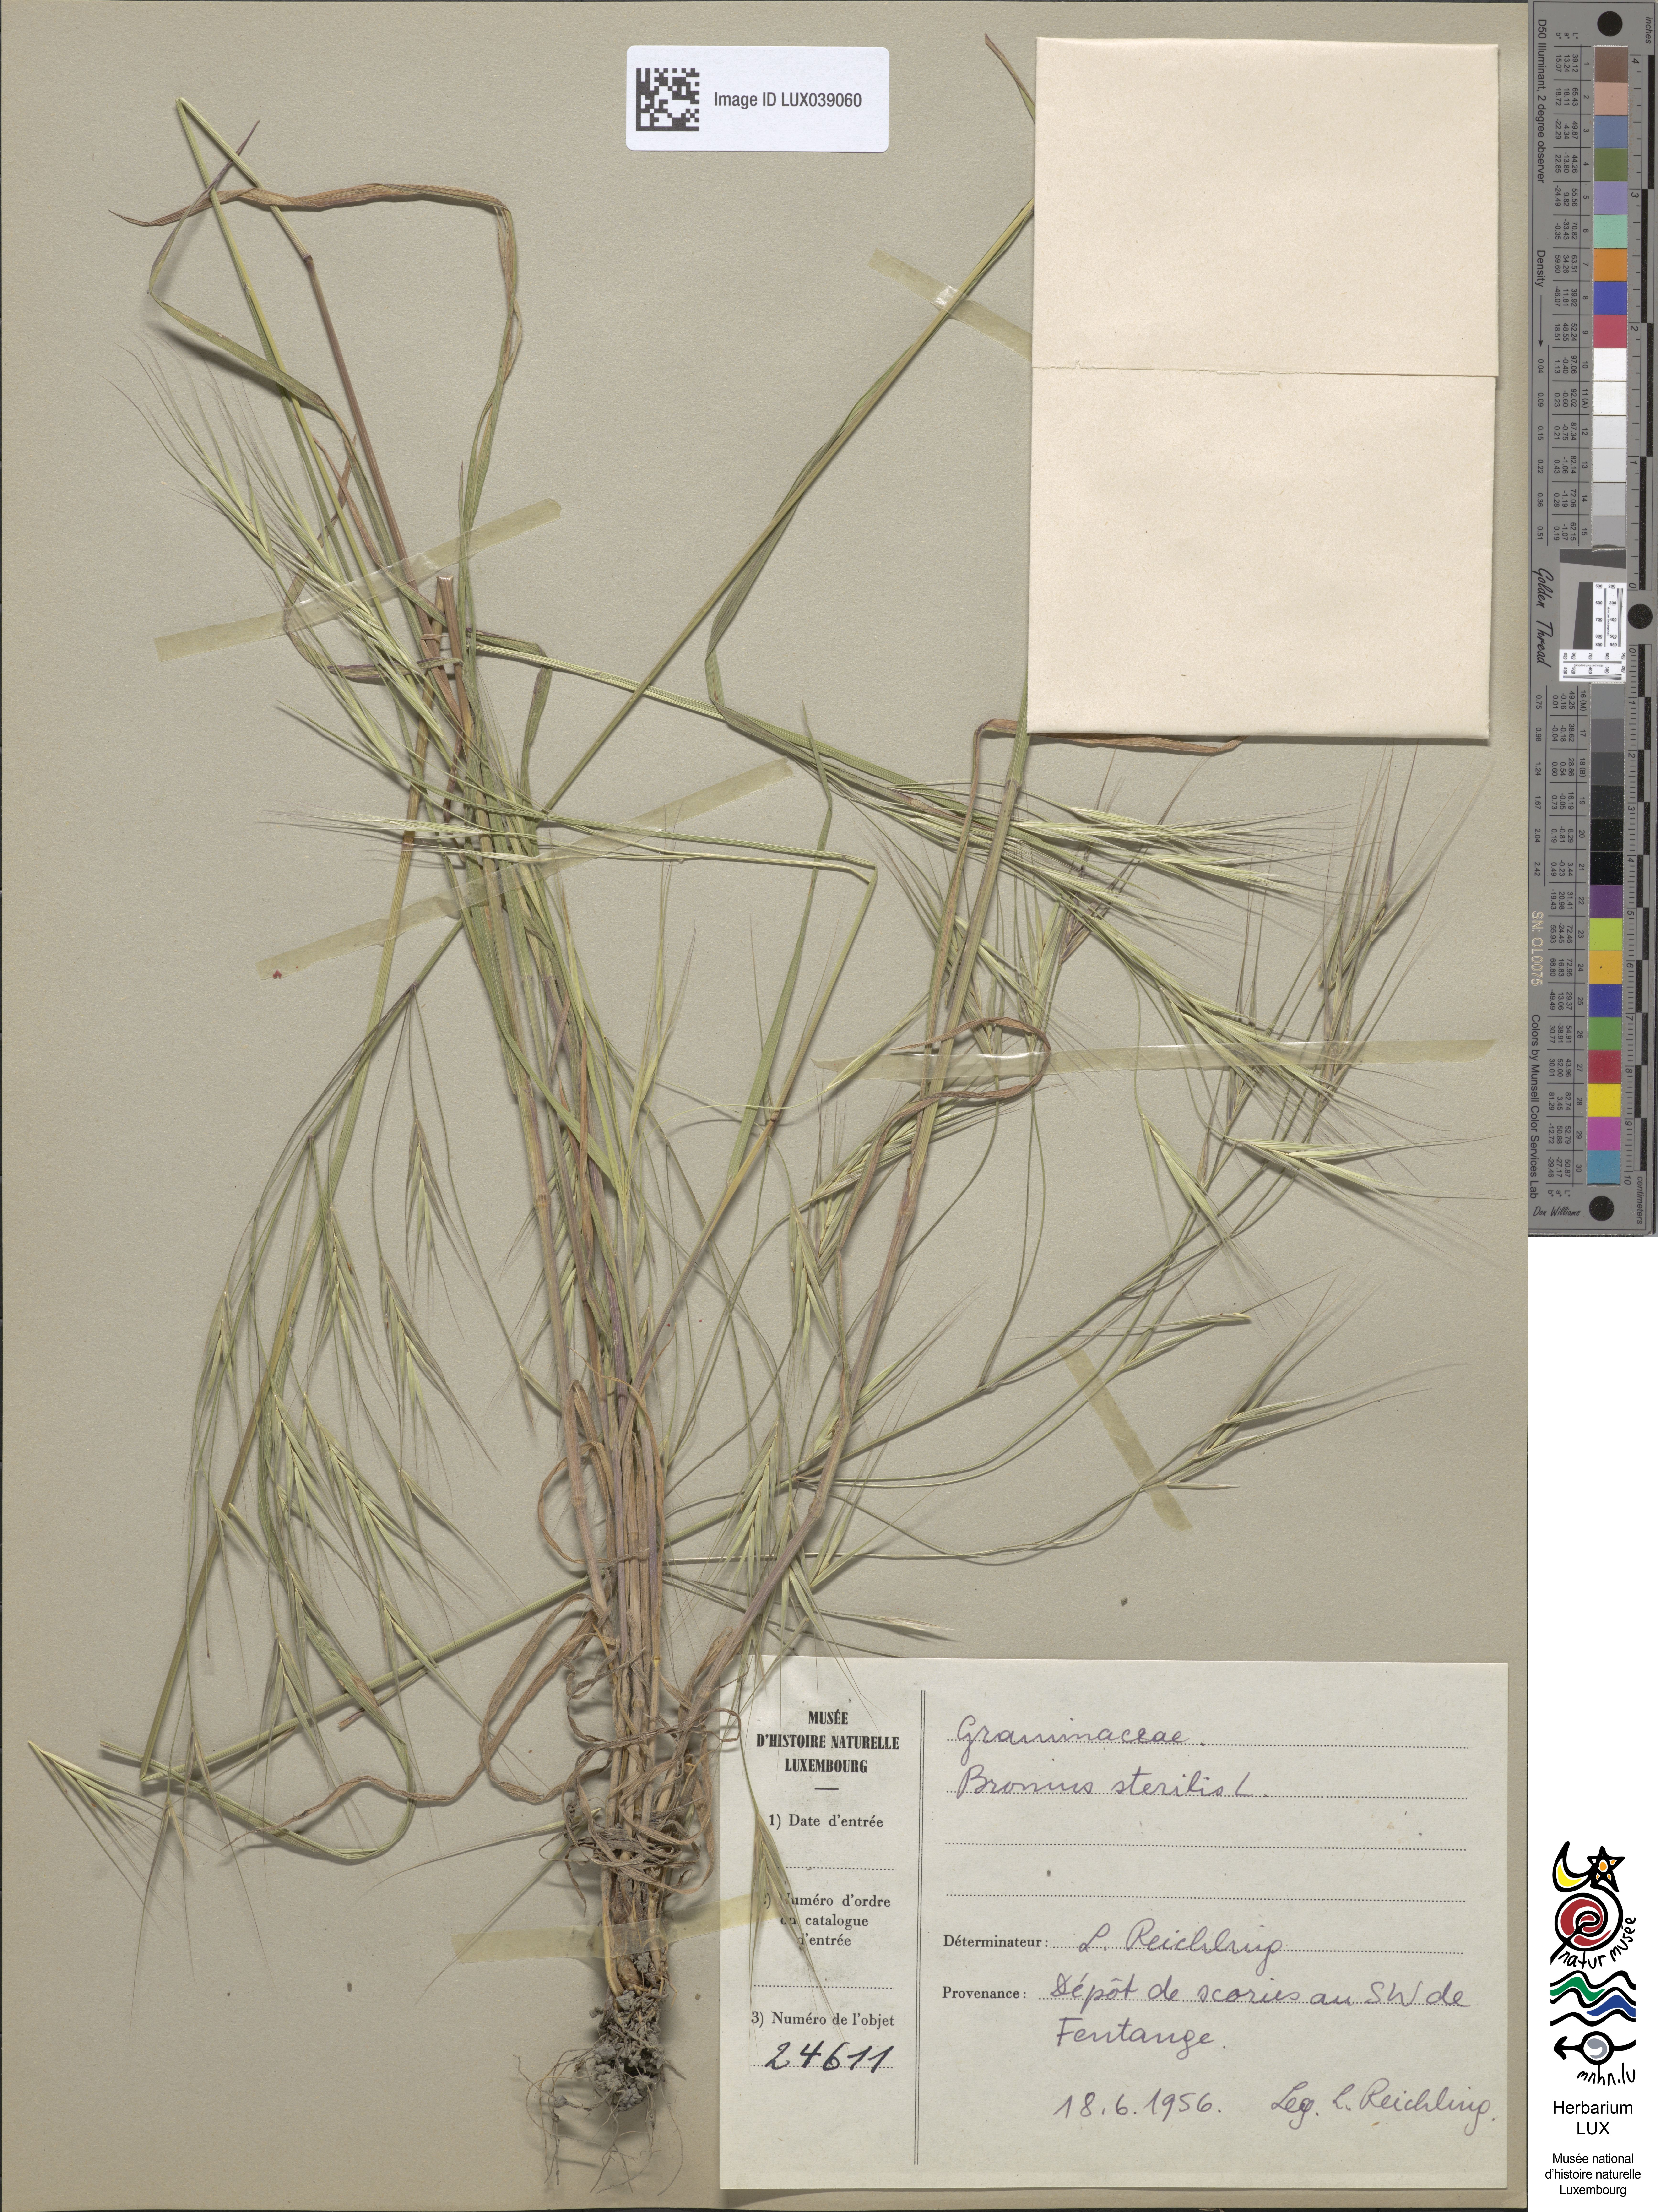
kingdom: Plantae
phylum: Tracheophyta
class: Liliopsida
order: Poales
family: Poaceae
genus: Bromus
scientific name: Bromus sterilis
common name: Poverty brome
